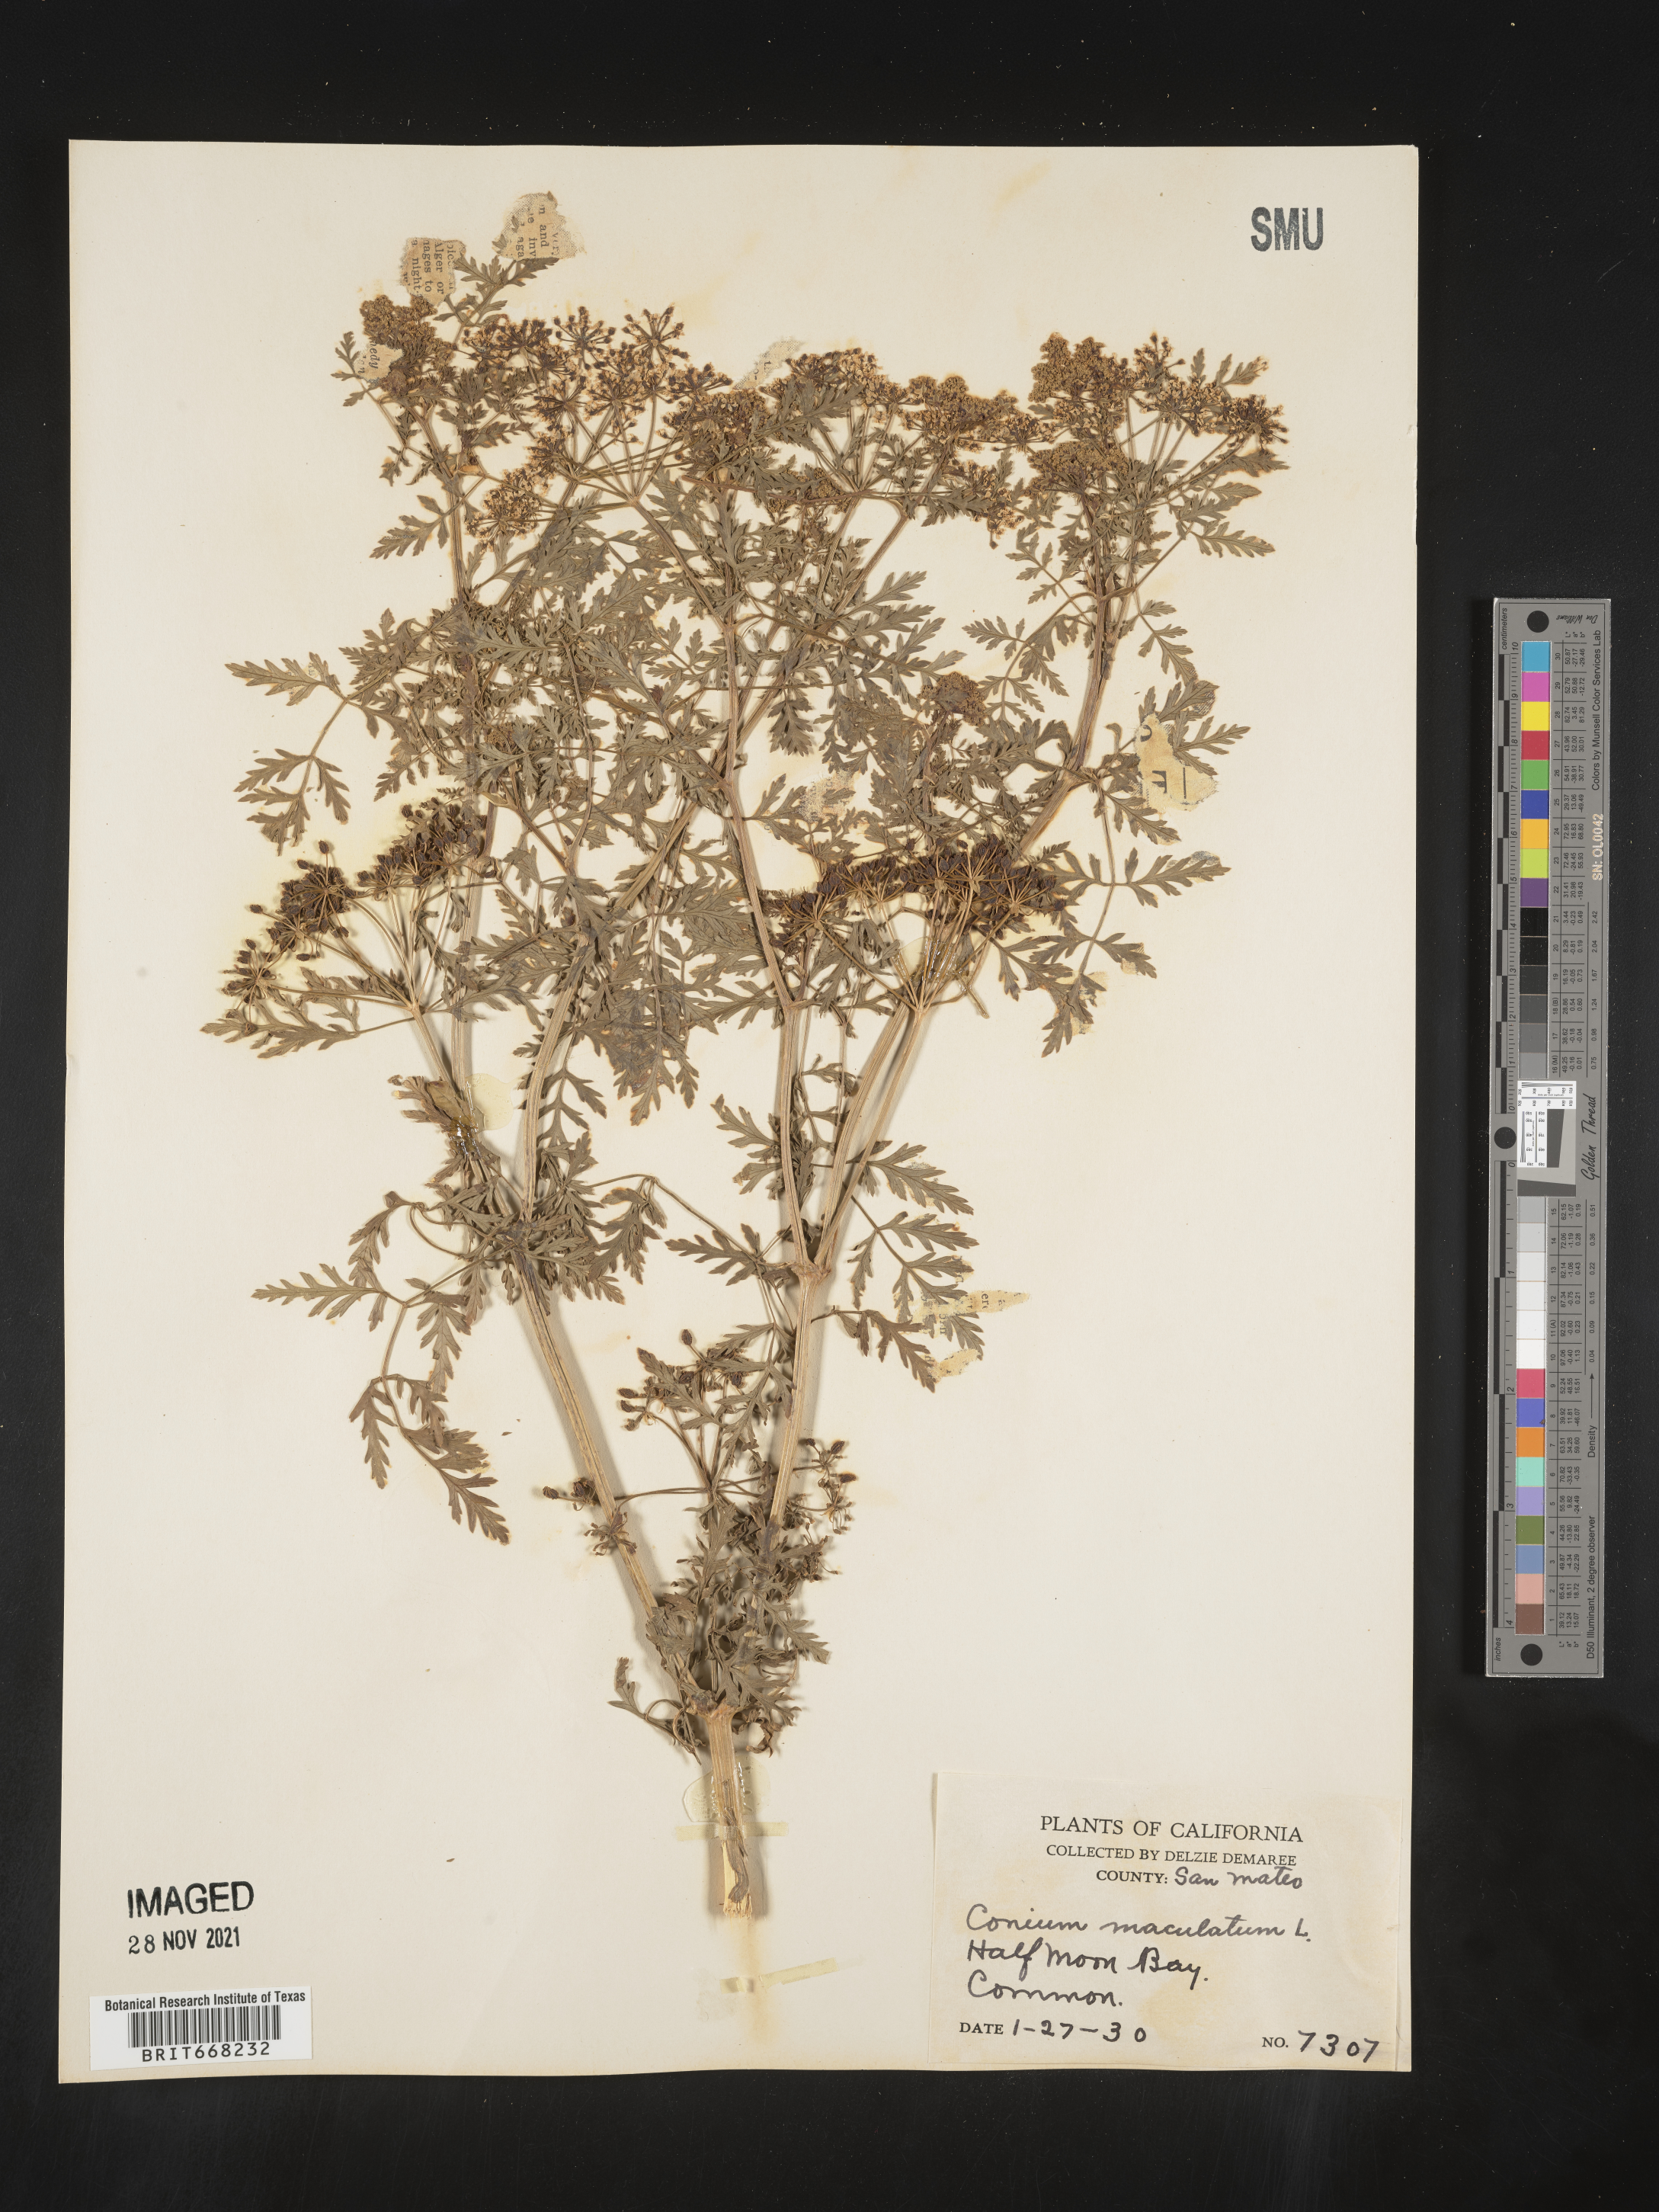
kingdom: Plantae
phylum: Tracheophyta
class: Magnoliopsida
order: Apiales
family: Apiaceae
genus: Conium
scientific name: Conium maculatum
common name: Hemlock
